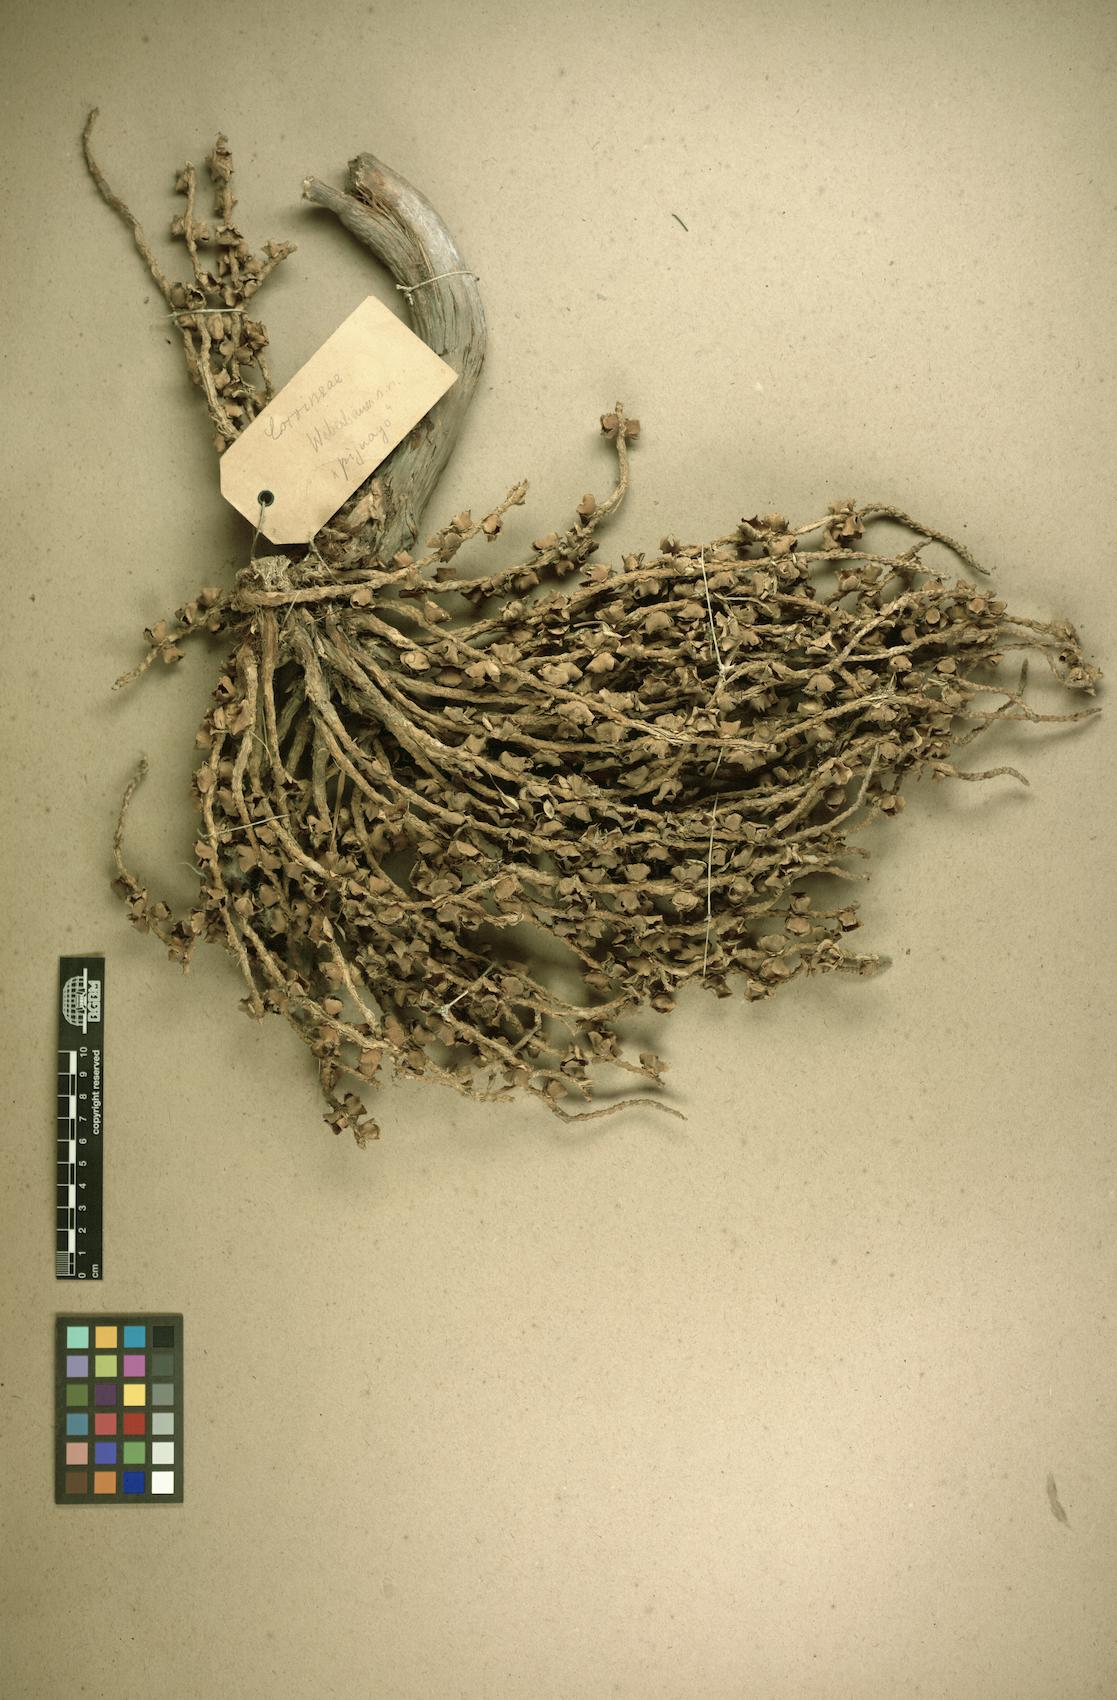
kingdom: Plantae
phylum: Tracheophyta
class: Liliopsida
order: Arecales
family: Arecaceae
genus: Bactris
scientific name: Bactris gasipaes
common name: Peach palm
